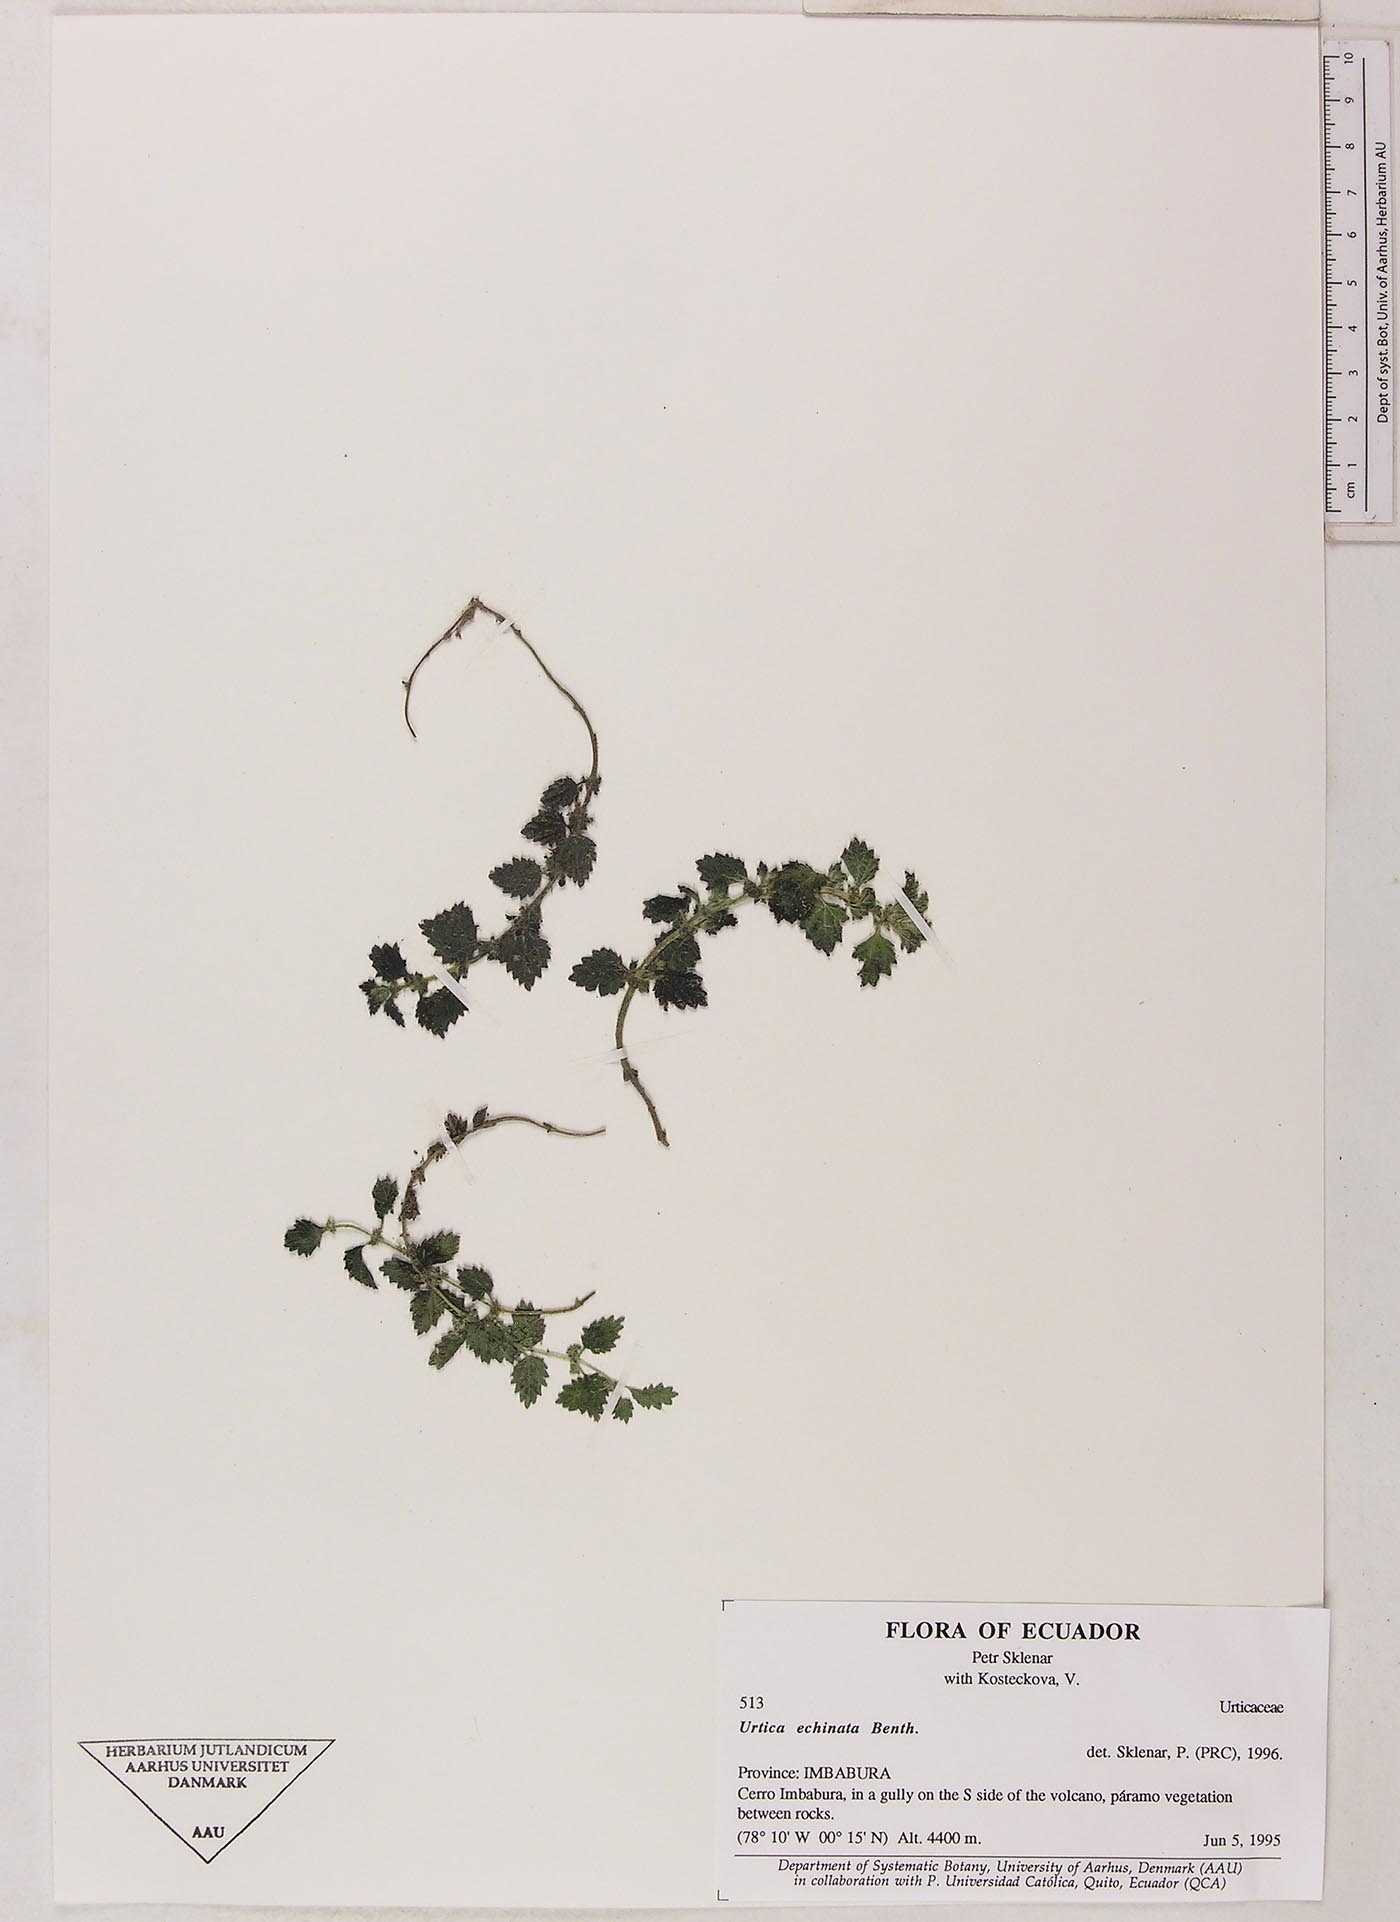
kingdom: Plantae
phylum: Tracheophyta
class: Magnoliopsida
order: Rosales
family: Urticaceae
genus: Urtica
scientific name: Urtica echinata
